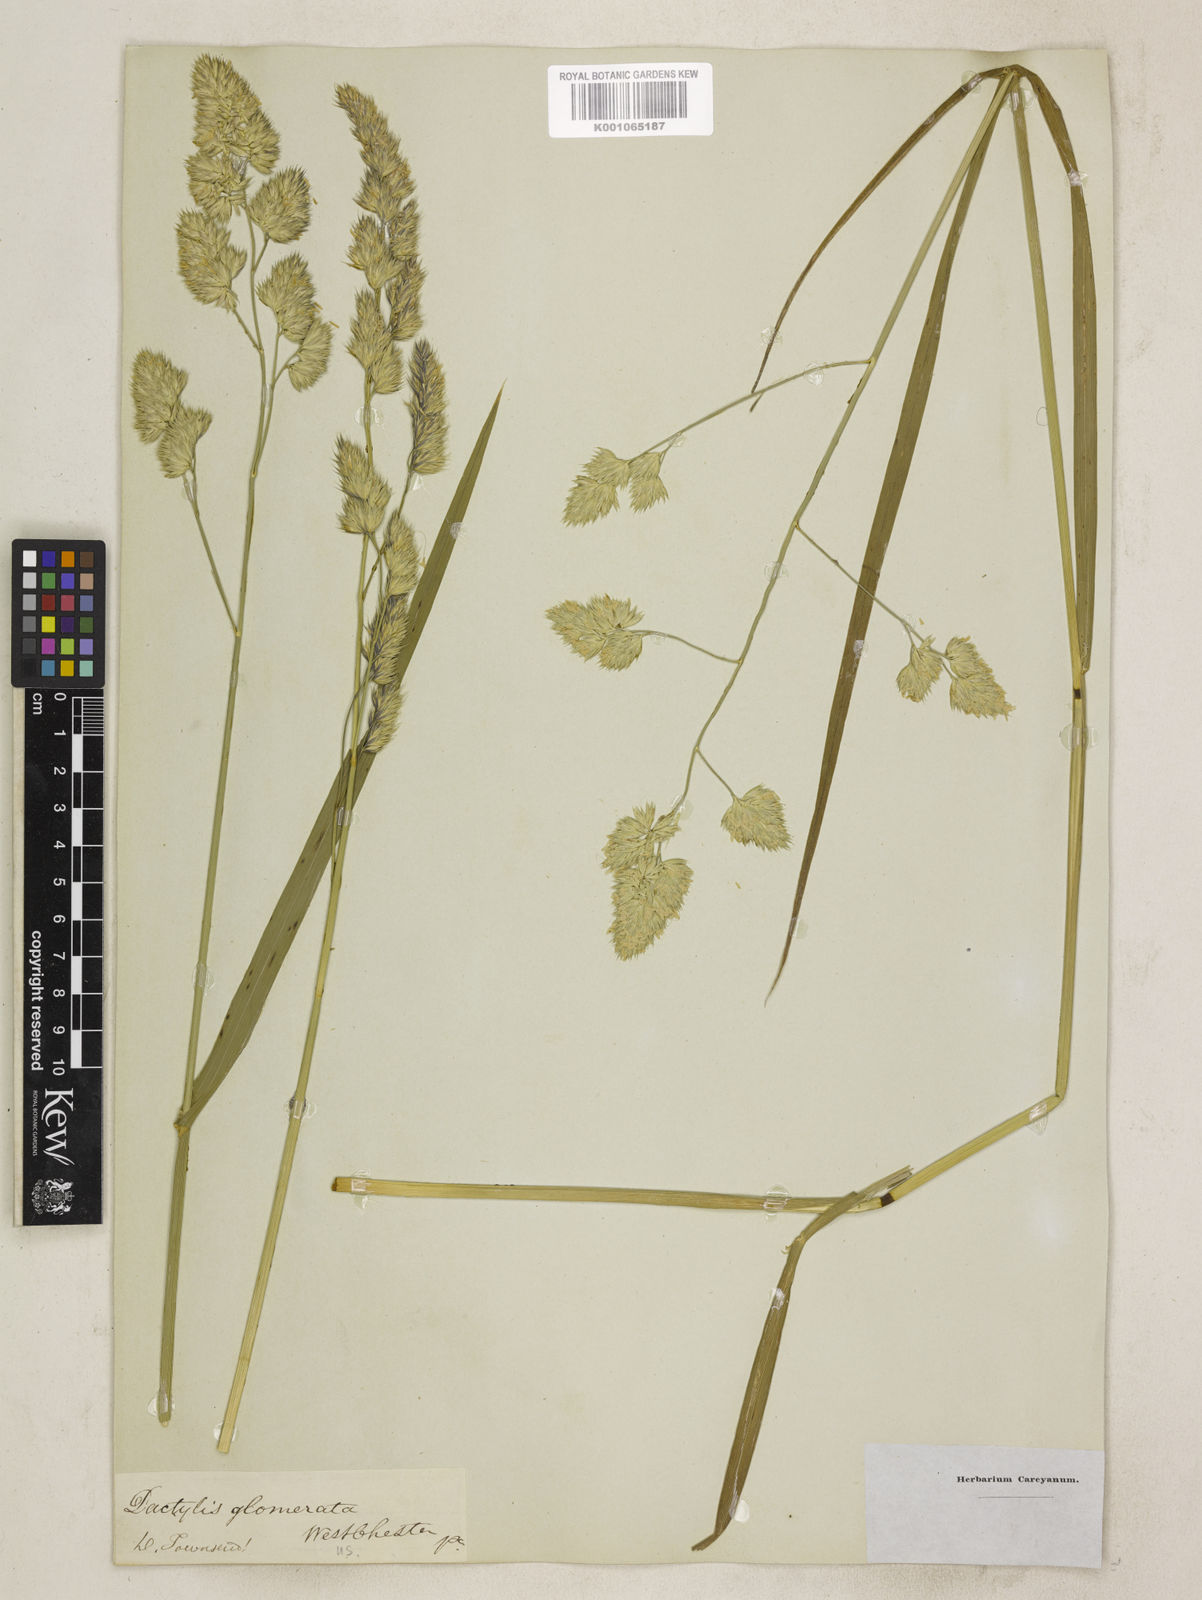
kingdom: Plantae
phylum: Tracheophyta
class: Liliopsida
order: Poales
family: Poaceae
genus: Dactylis
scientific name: Dactylis glomerata
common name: Orchardgrass
